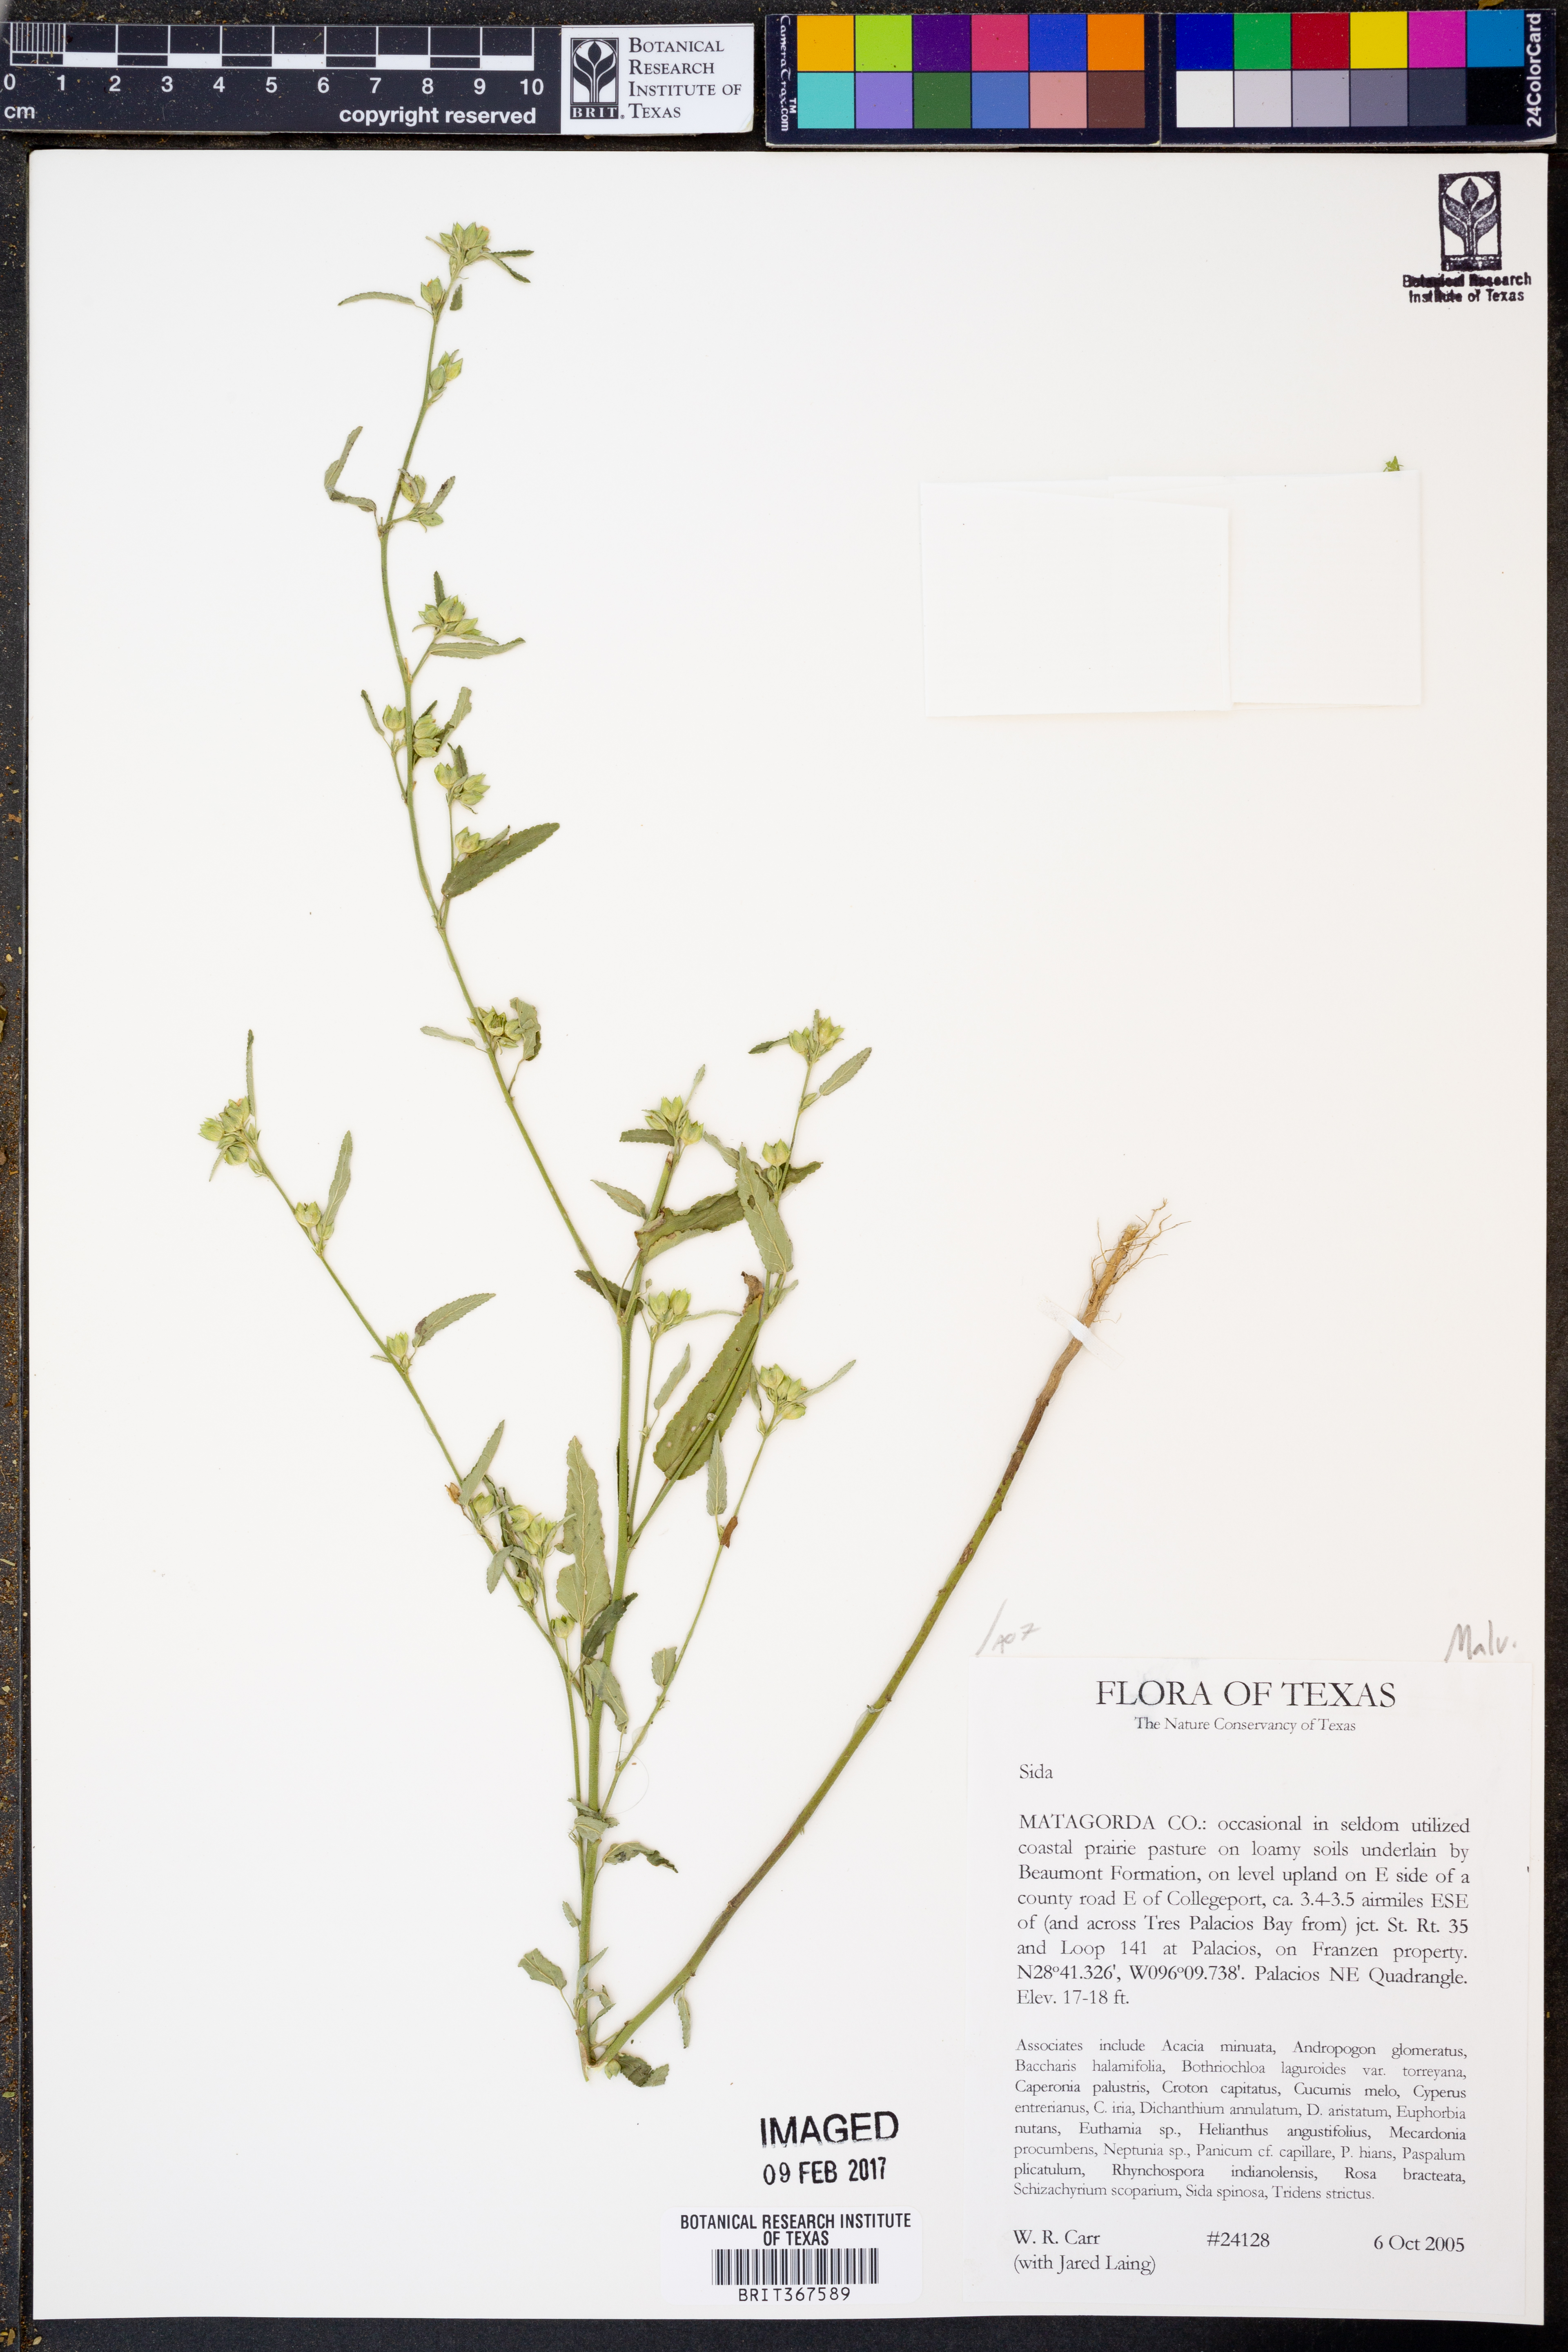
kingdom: Plantae
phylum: Tracheophyta
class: Magnoliopsida
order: Malvales
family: Malvaceae
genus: Sida
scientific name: Sida
